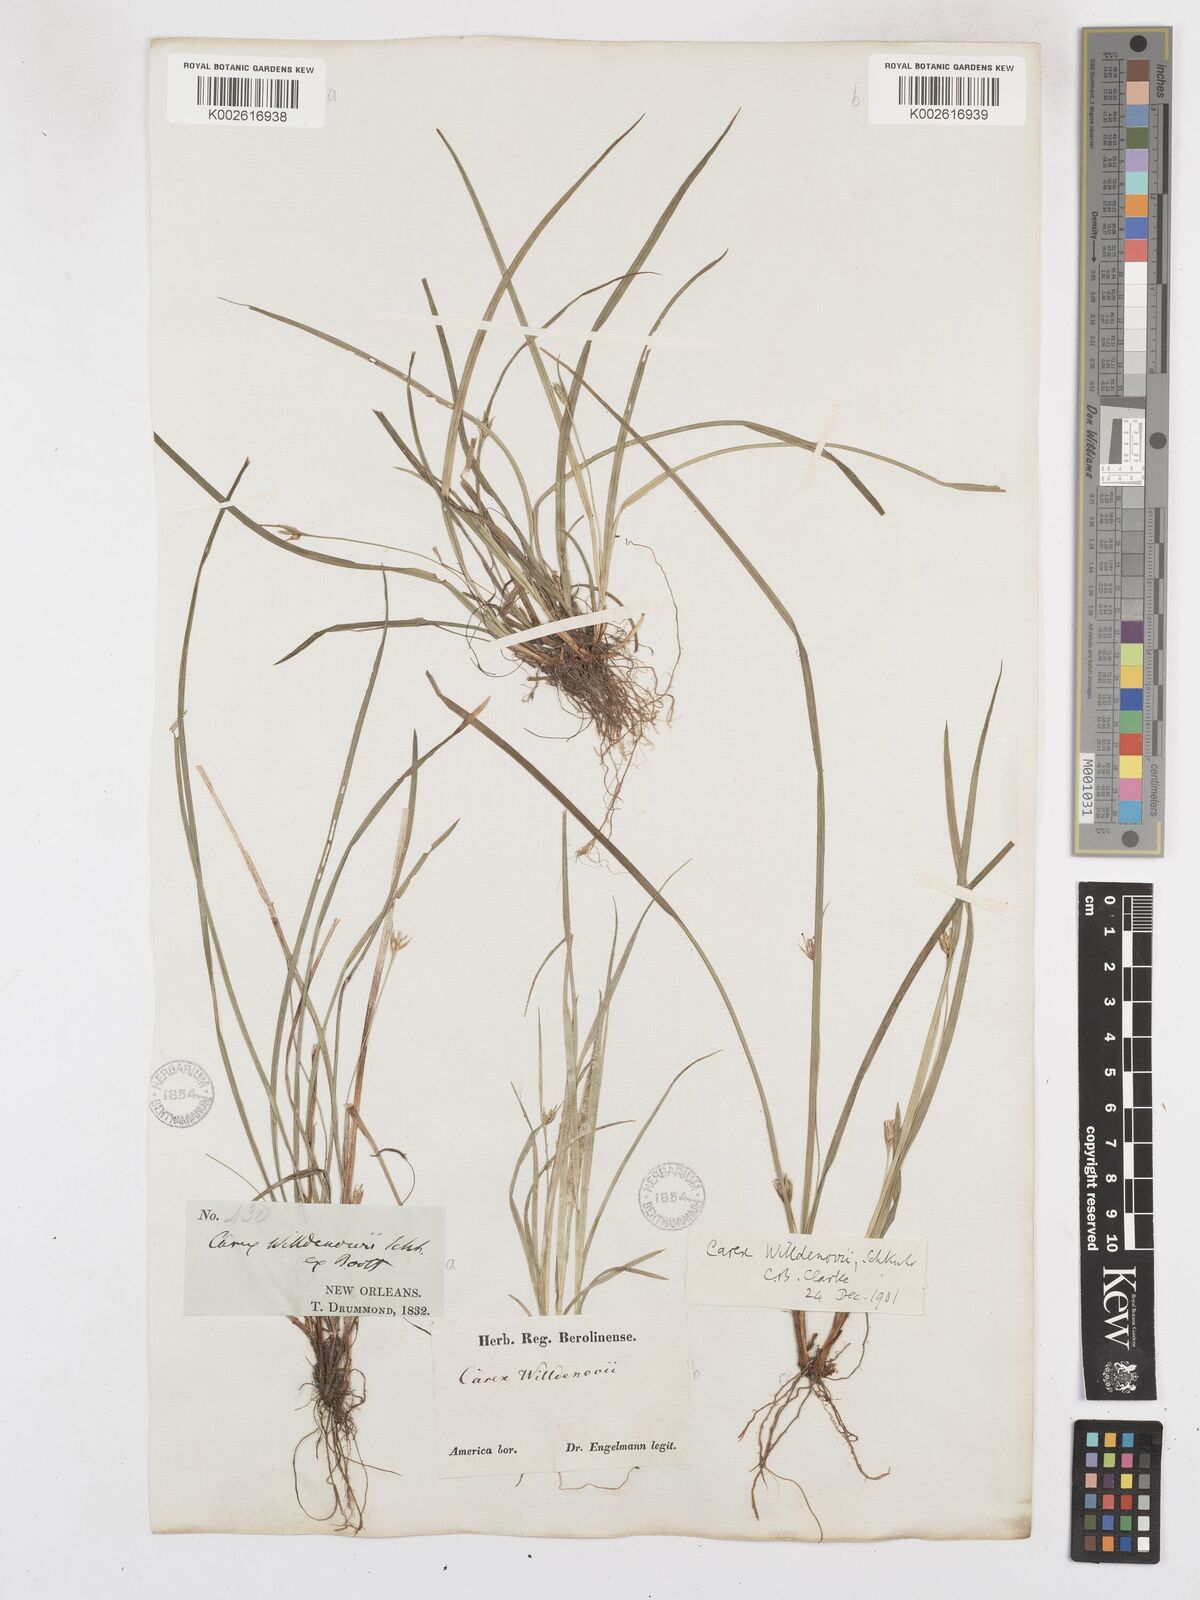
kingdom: Plantae
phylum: Tracheophyta
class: Liliopsida
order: Poales
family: Cyperaceae
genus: Carex
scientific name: Carex willdenowii
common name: Willdenow's sedge
